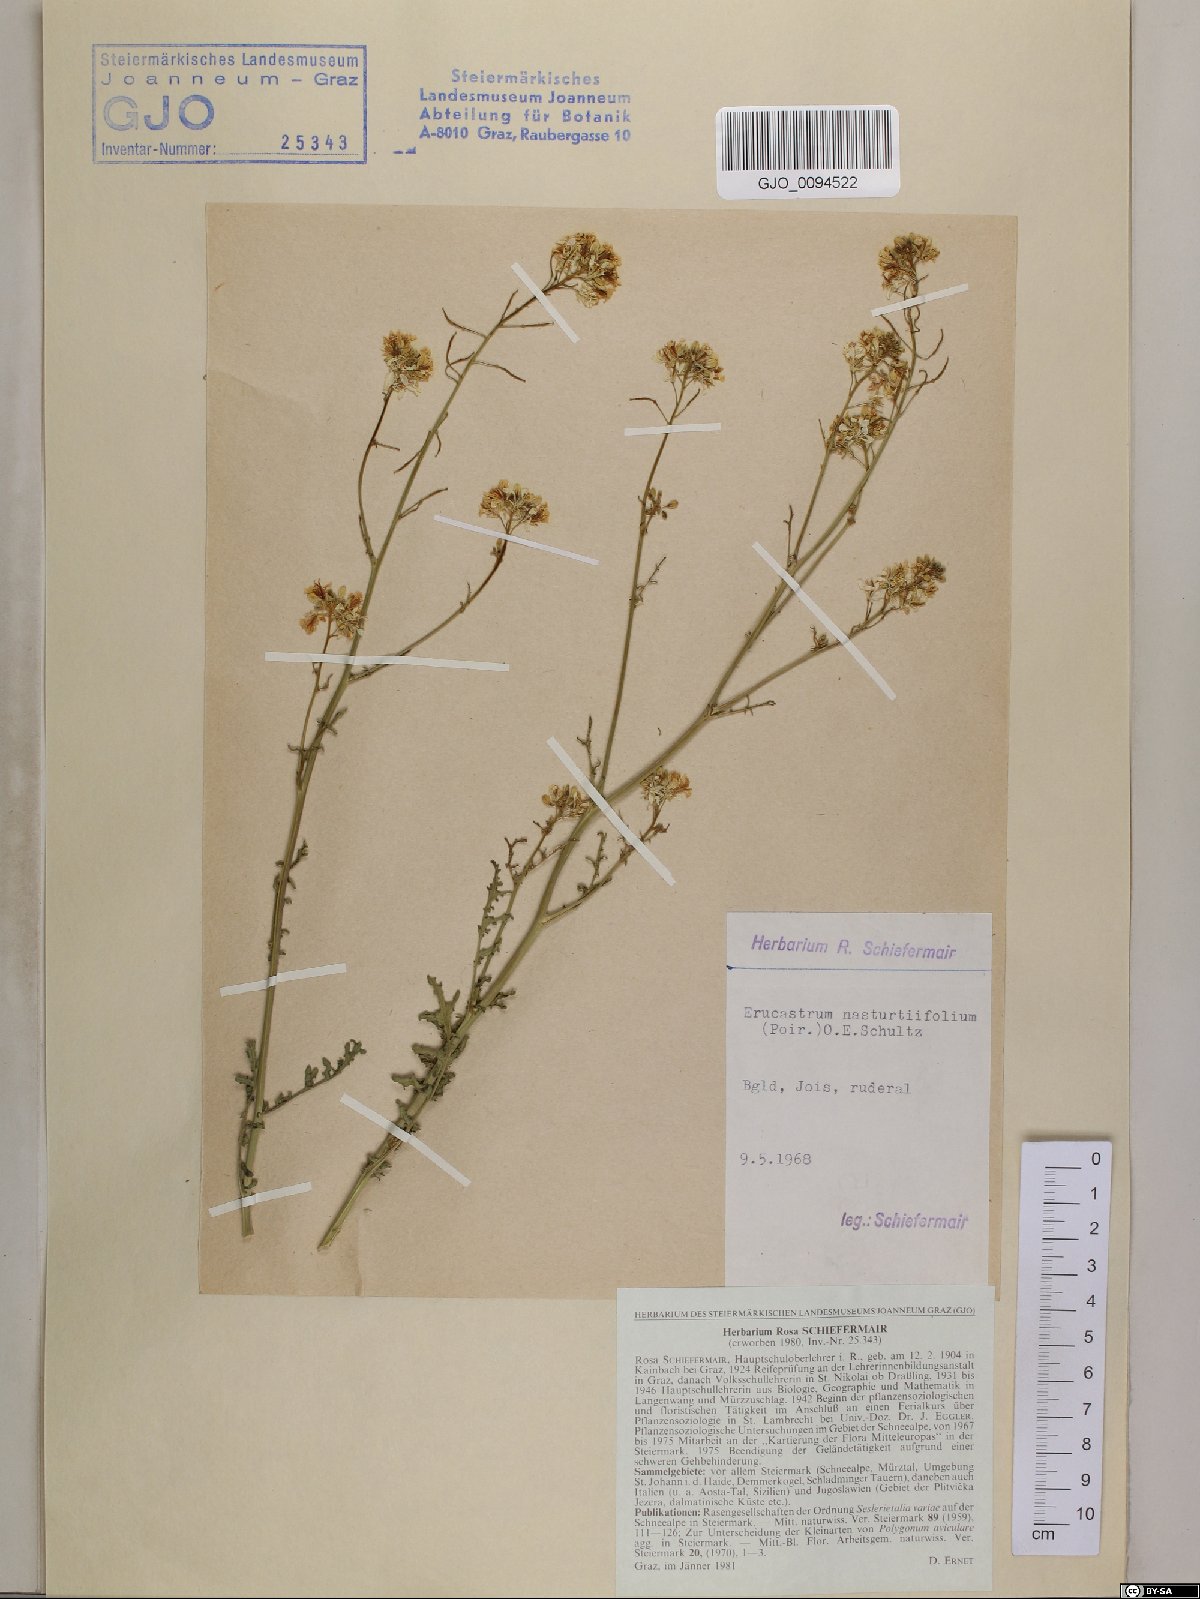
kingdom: Plantae
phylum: Tracheophyta
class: Magnoliopsida
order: Brassicales
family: Brassicaceae
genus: Erucastrum
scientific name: Erucastrum nasturtiifolium
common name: Watercress-leaf rocket
